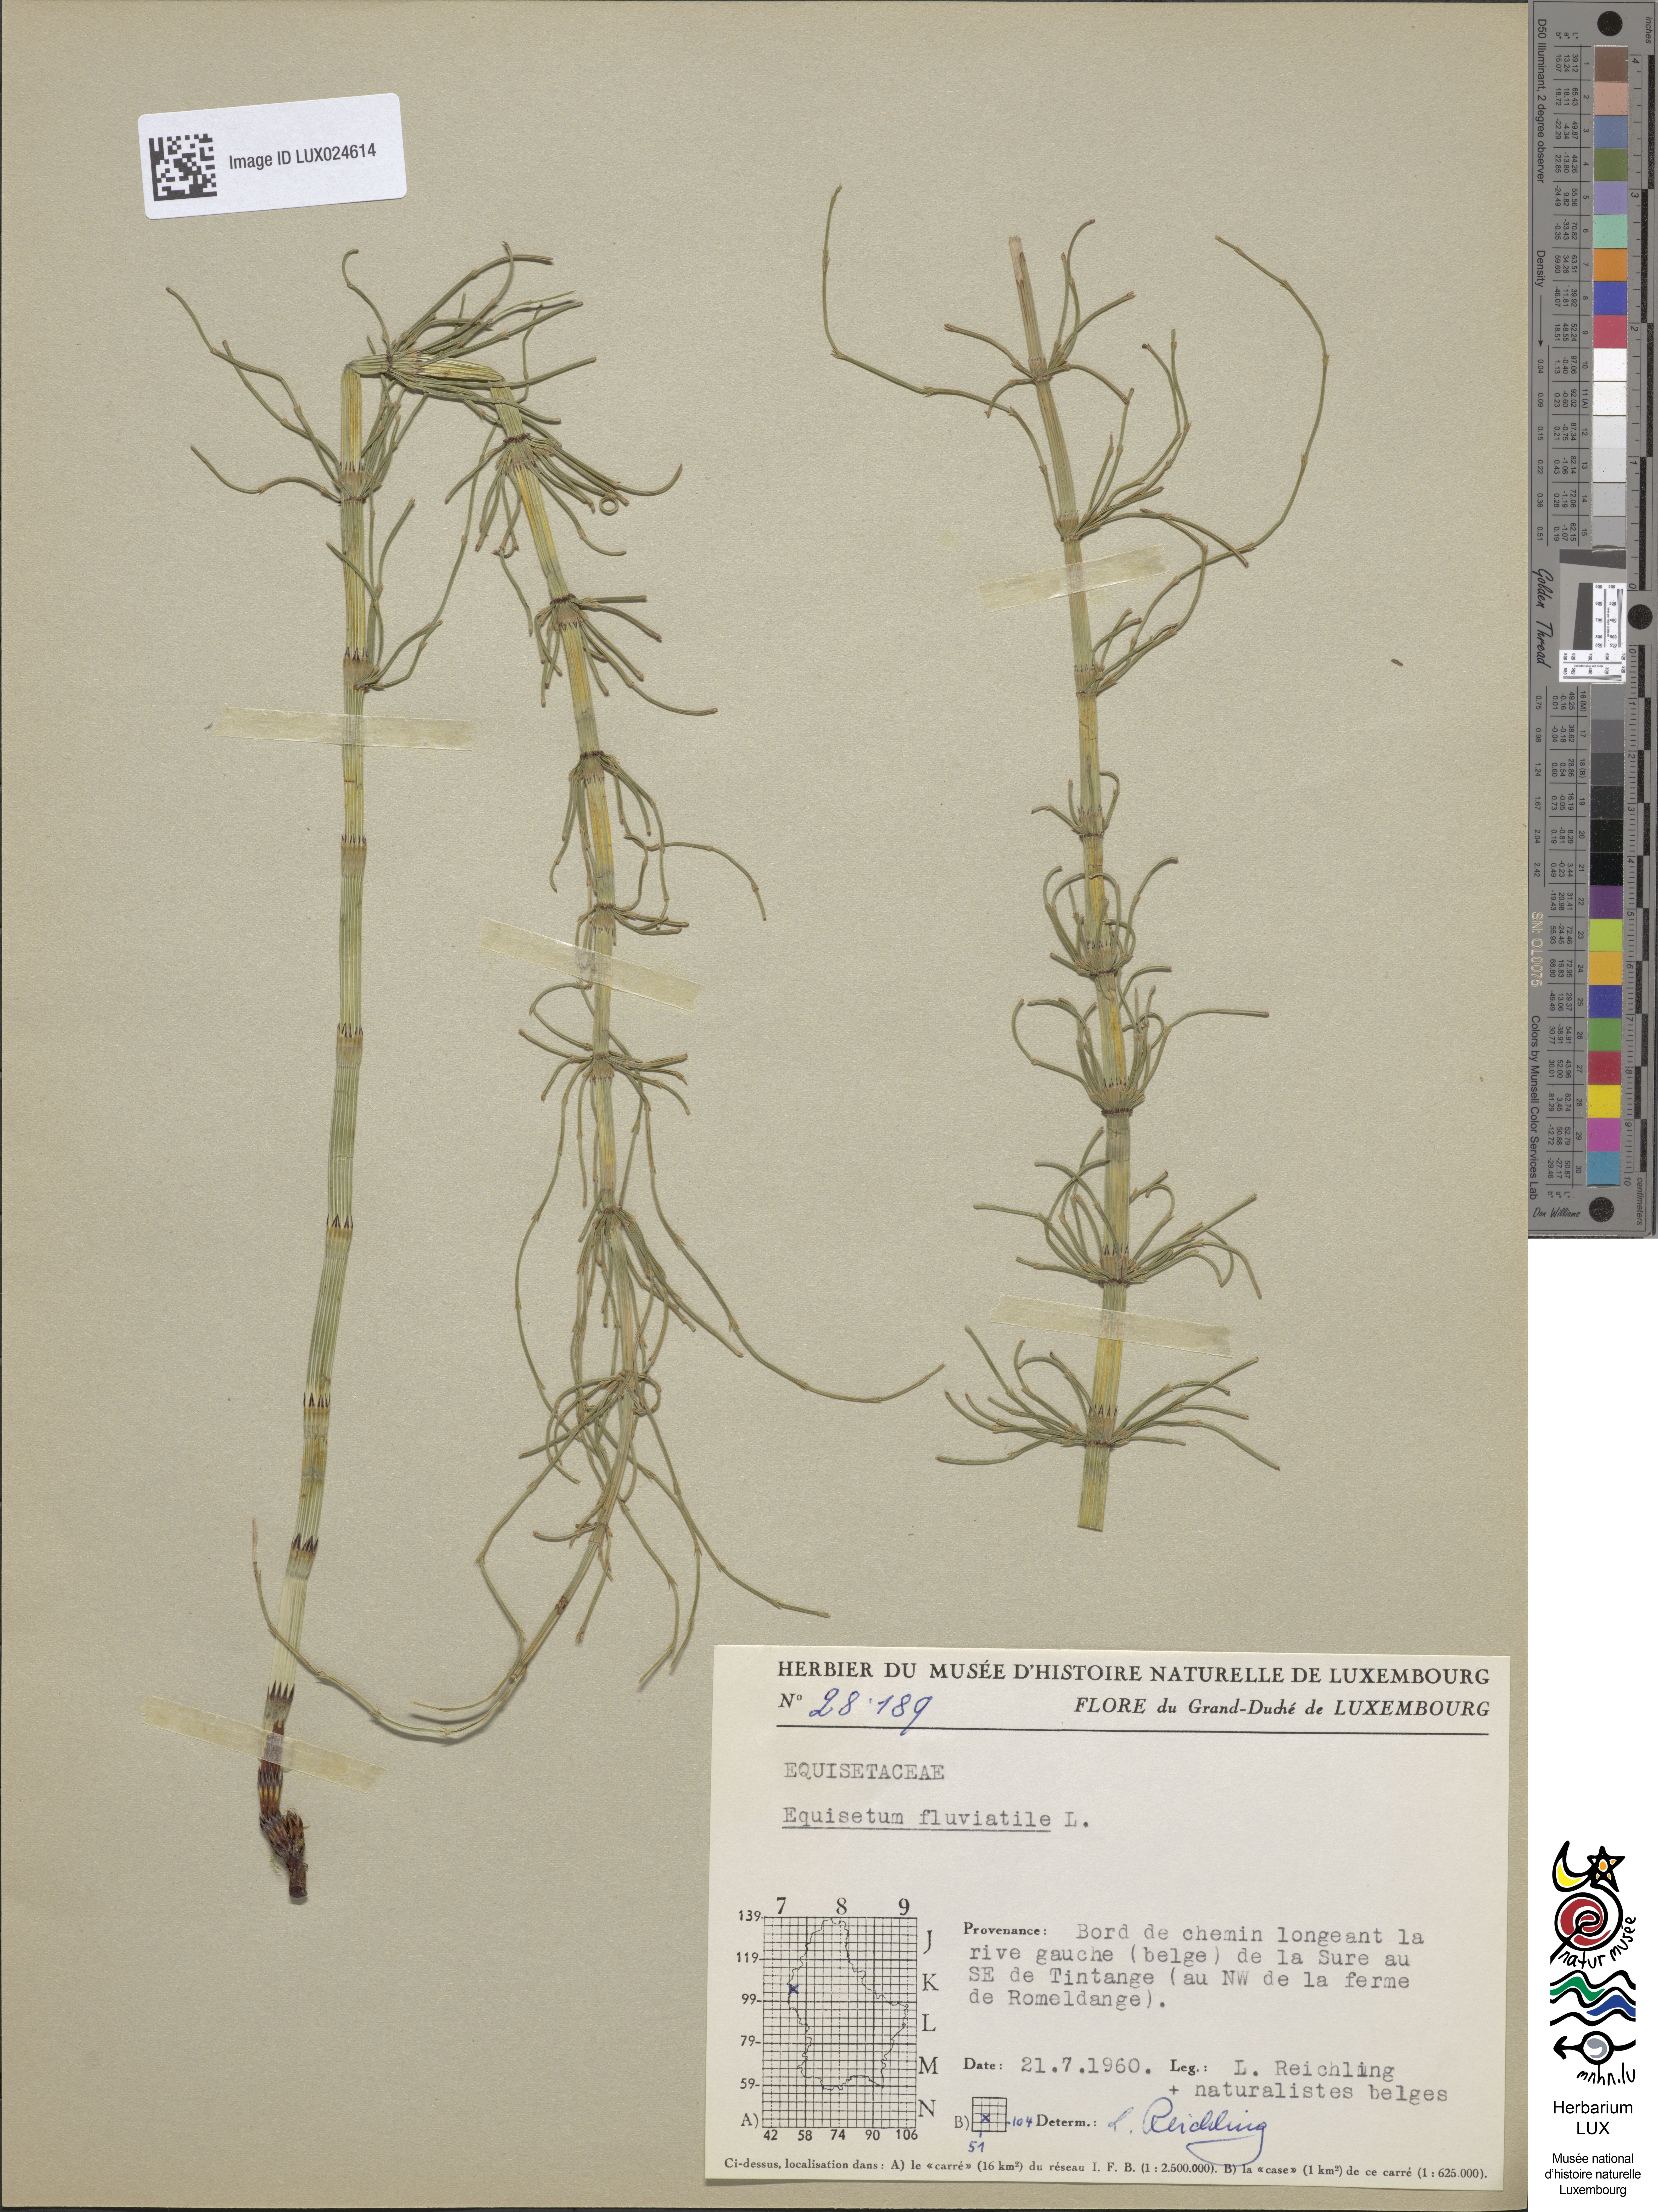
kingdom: Plantae
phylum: Tracheophyta
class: Polypodiopsida
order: Equisetales
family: Equisetaceae
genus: Equisetum
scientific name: Equisetum fluviatile
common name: Water horsetail
